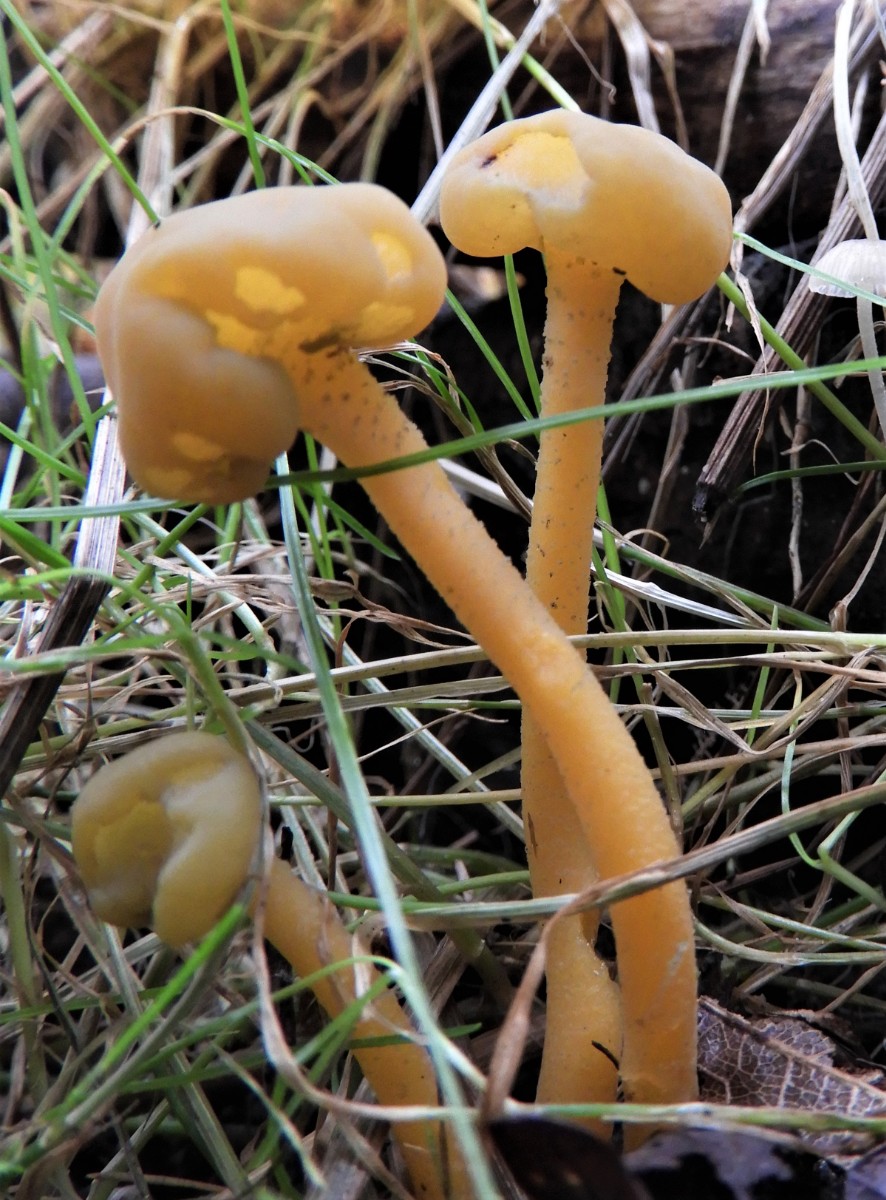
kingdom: Fungi
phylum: Ascomycota
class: Leotiomycetes
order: Leotiales
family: Leotiaceae
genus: Leotia
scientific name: Leotia lubrica
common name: ravsvamp
